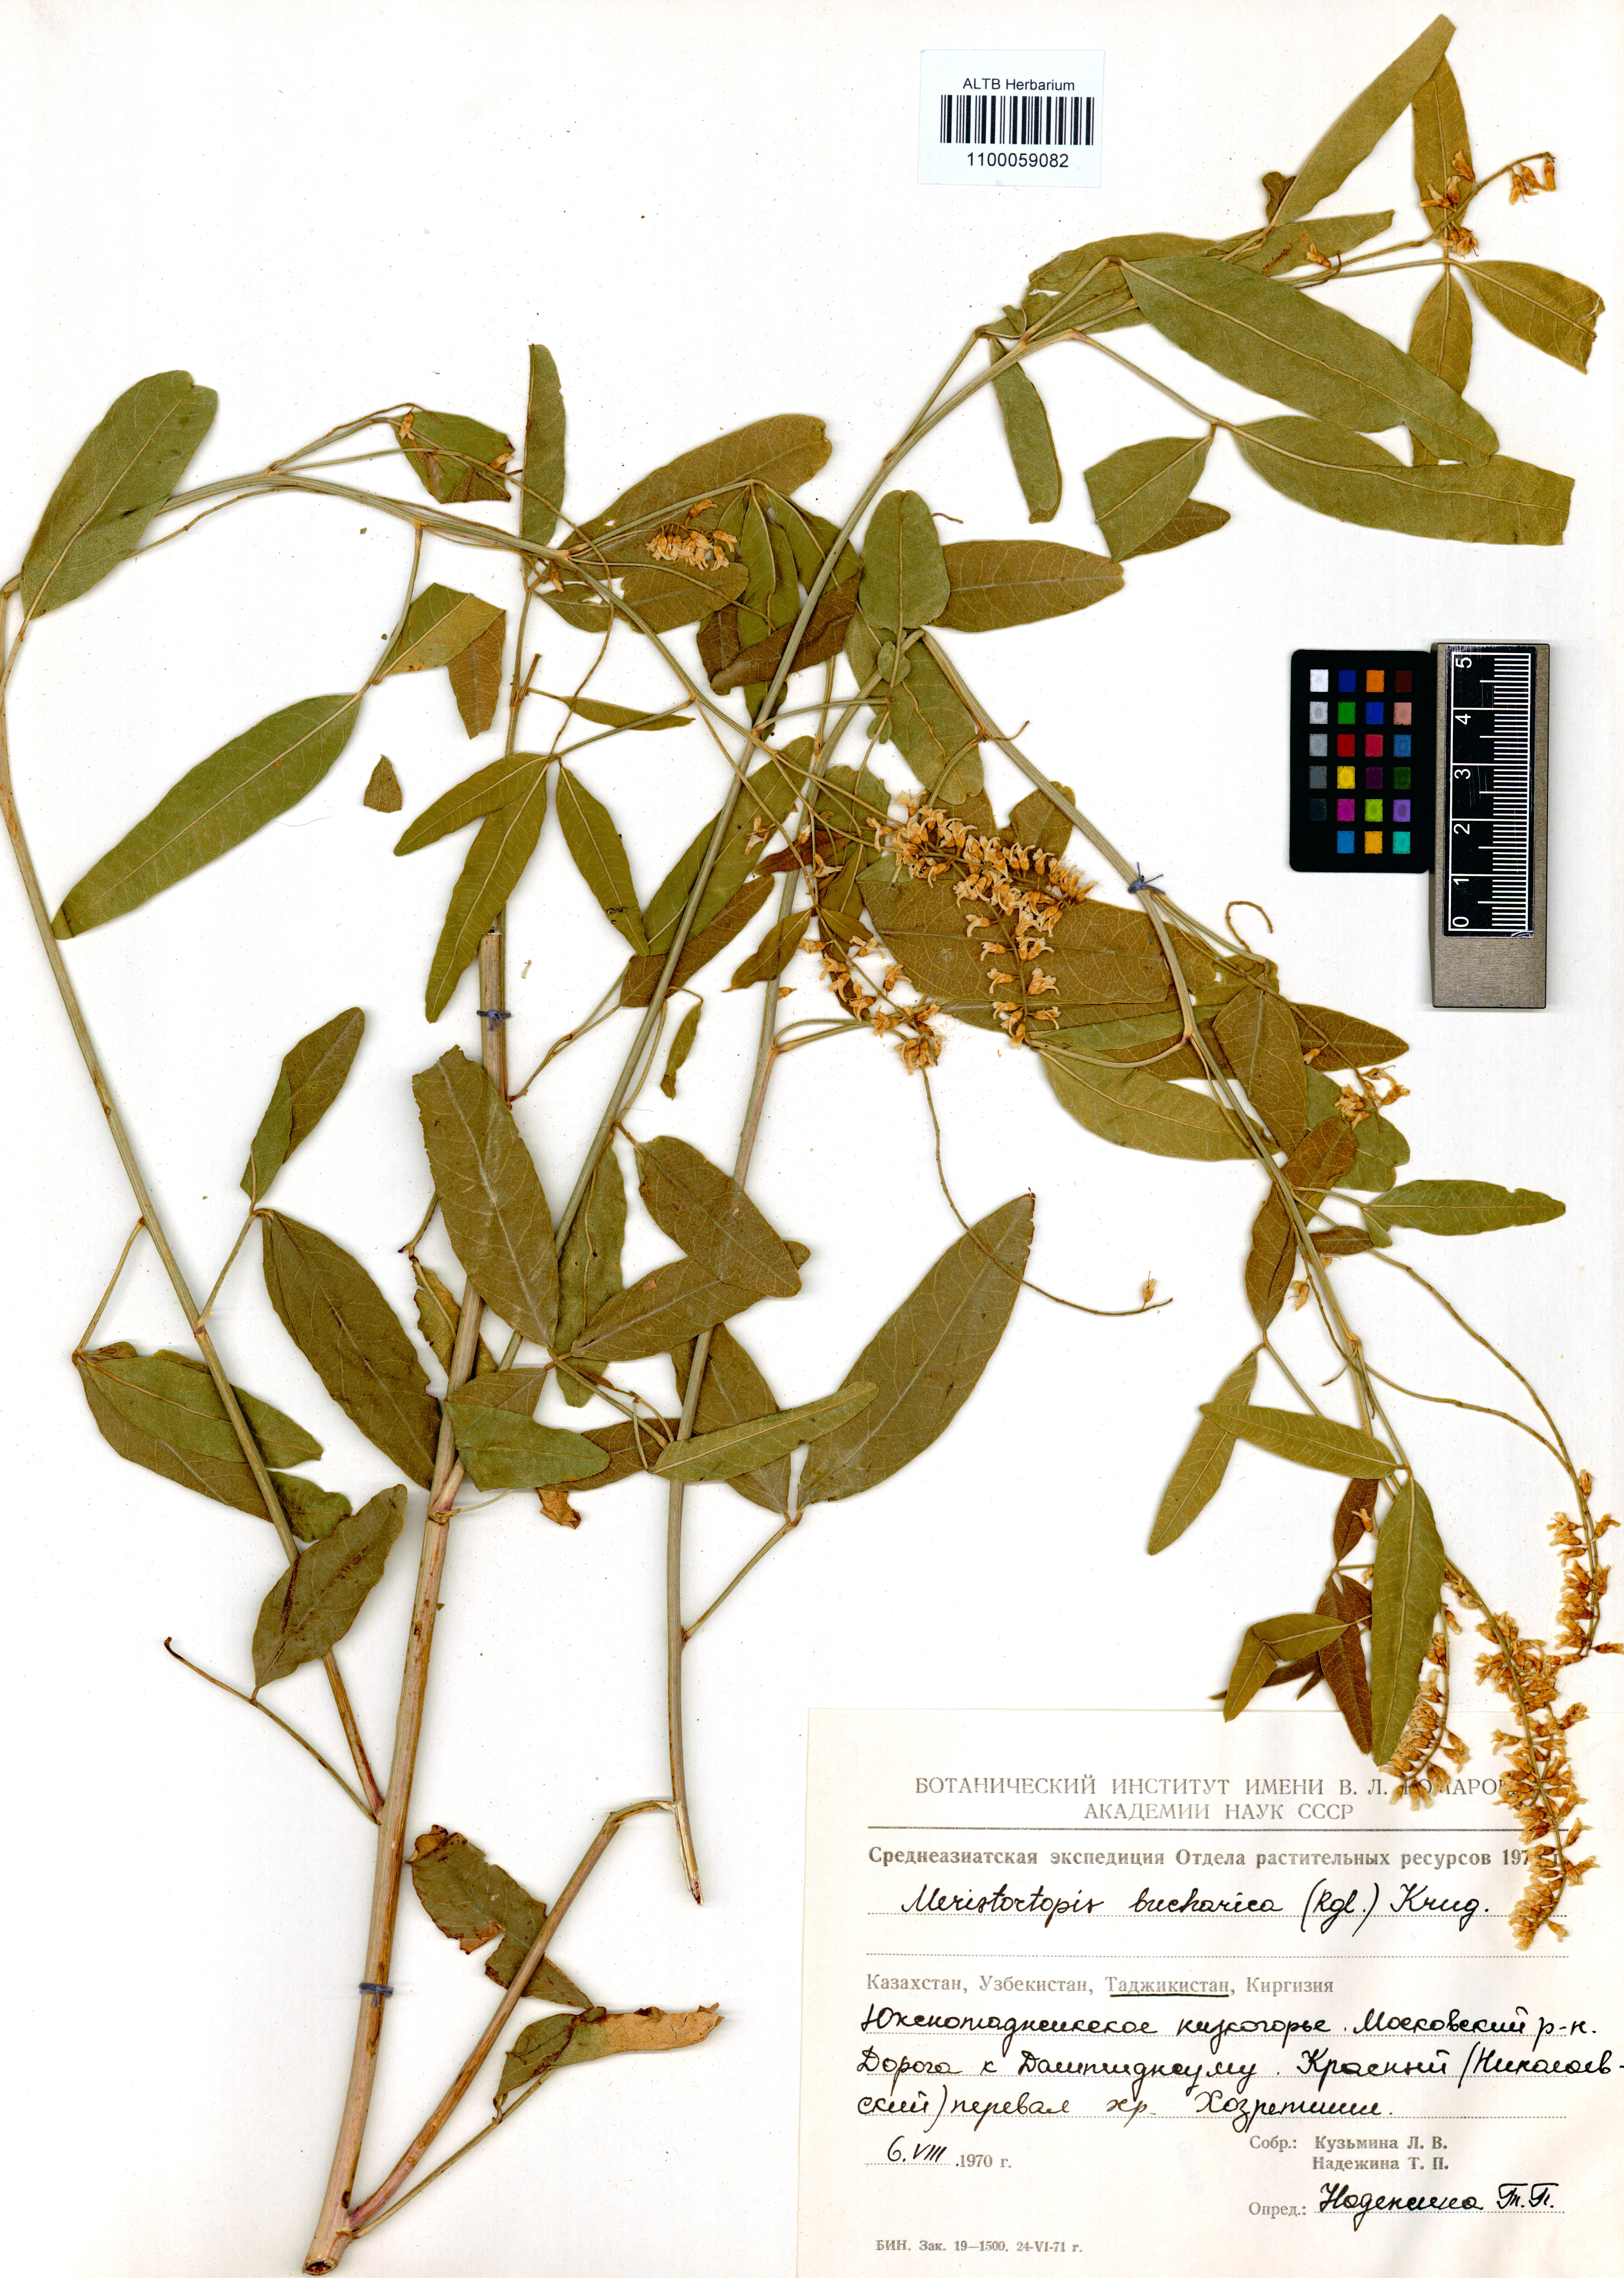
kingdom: Plantae
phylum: Tracheophyta
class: Magnoliopsida
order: Fabales
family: Fabaceae
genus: Glycyrrhiza
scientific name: Glycyrrhiza bucharica
